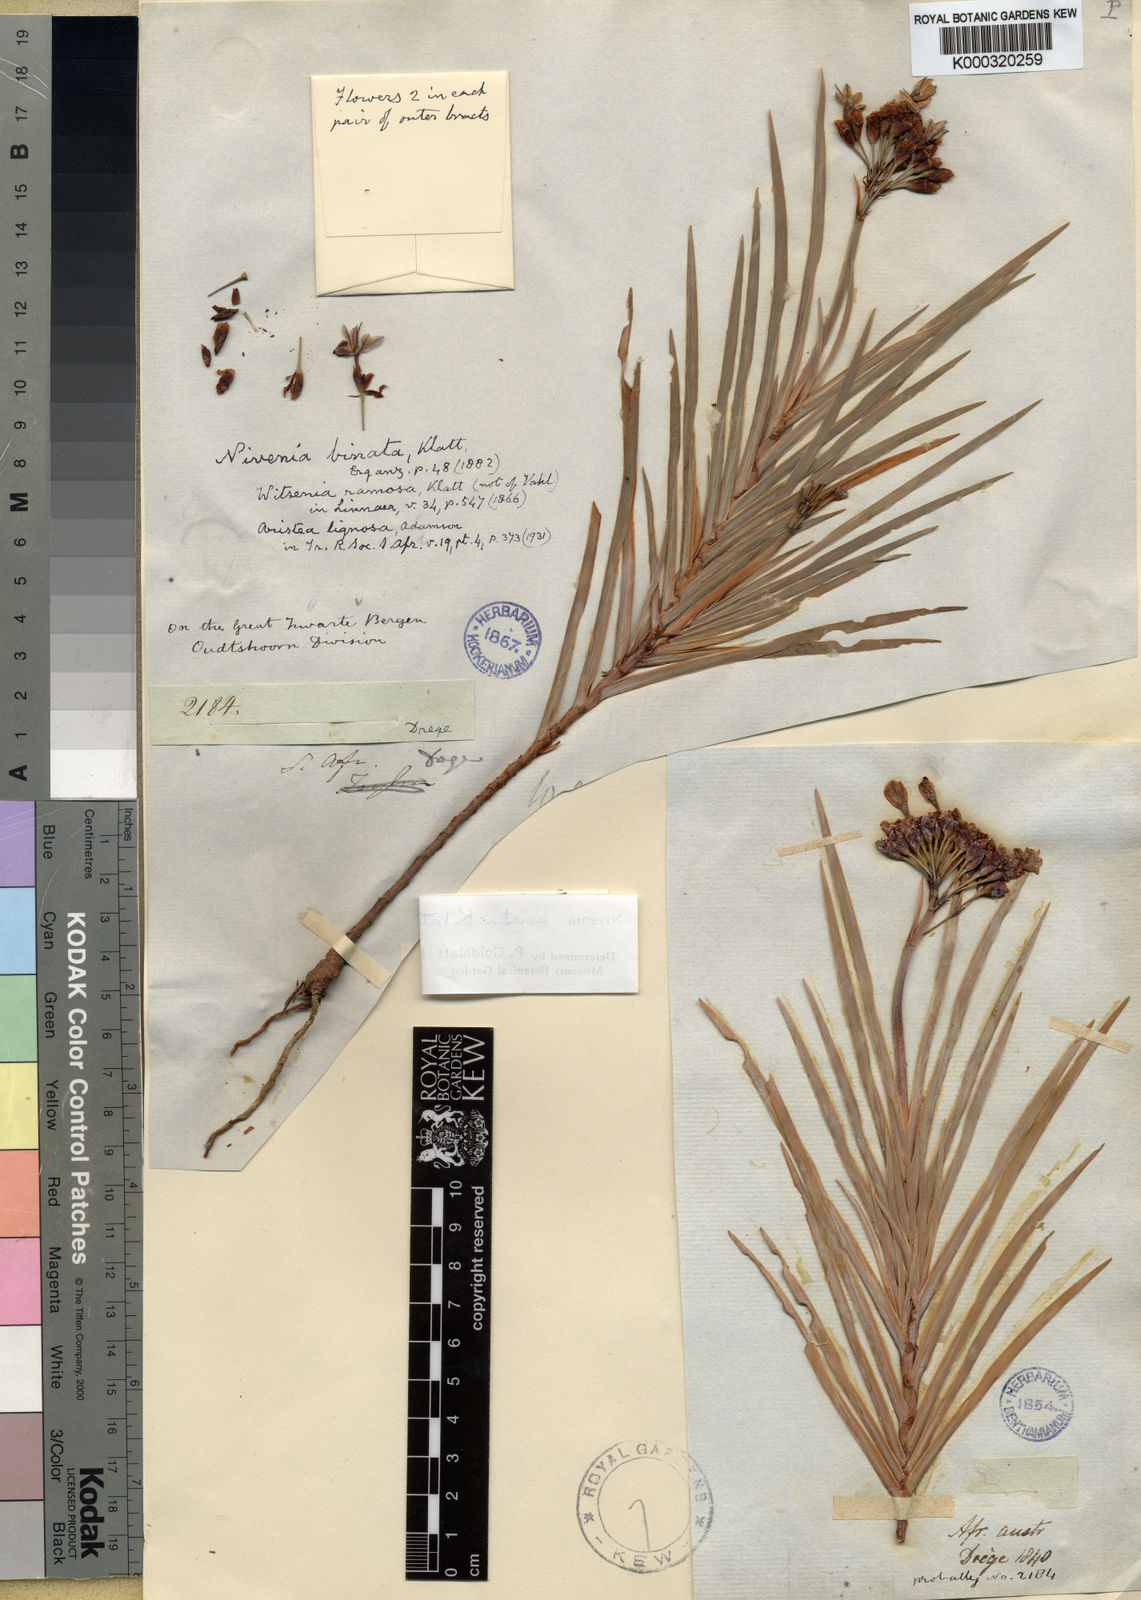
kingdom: Plantae
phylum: Tracheophyta
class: Liliopsida
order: Asparagales
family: Iridaceae
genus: Nivenia
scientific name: Nivenia binata
